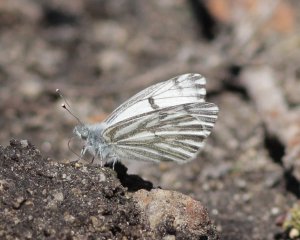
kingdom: Animalia
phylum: Arthropoda
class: Insecta
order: Lepidoptera
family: Pieridae
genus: Pontia
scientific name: Pontia sisymbrii
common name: Spring White
